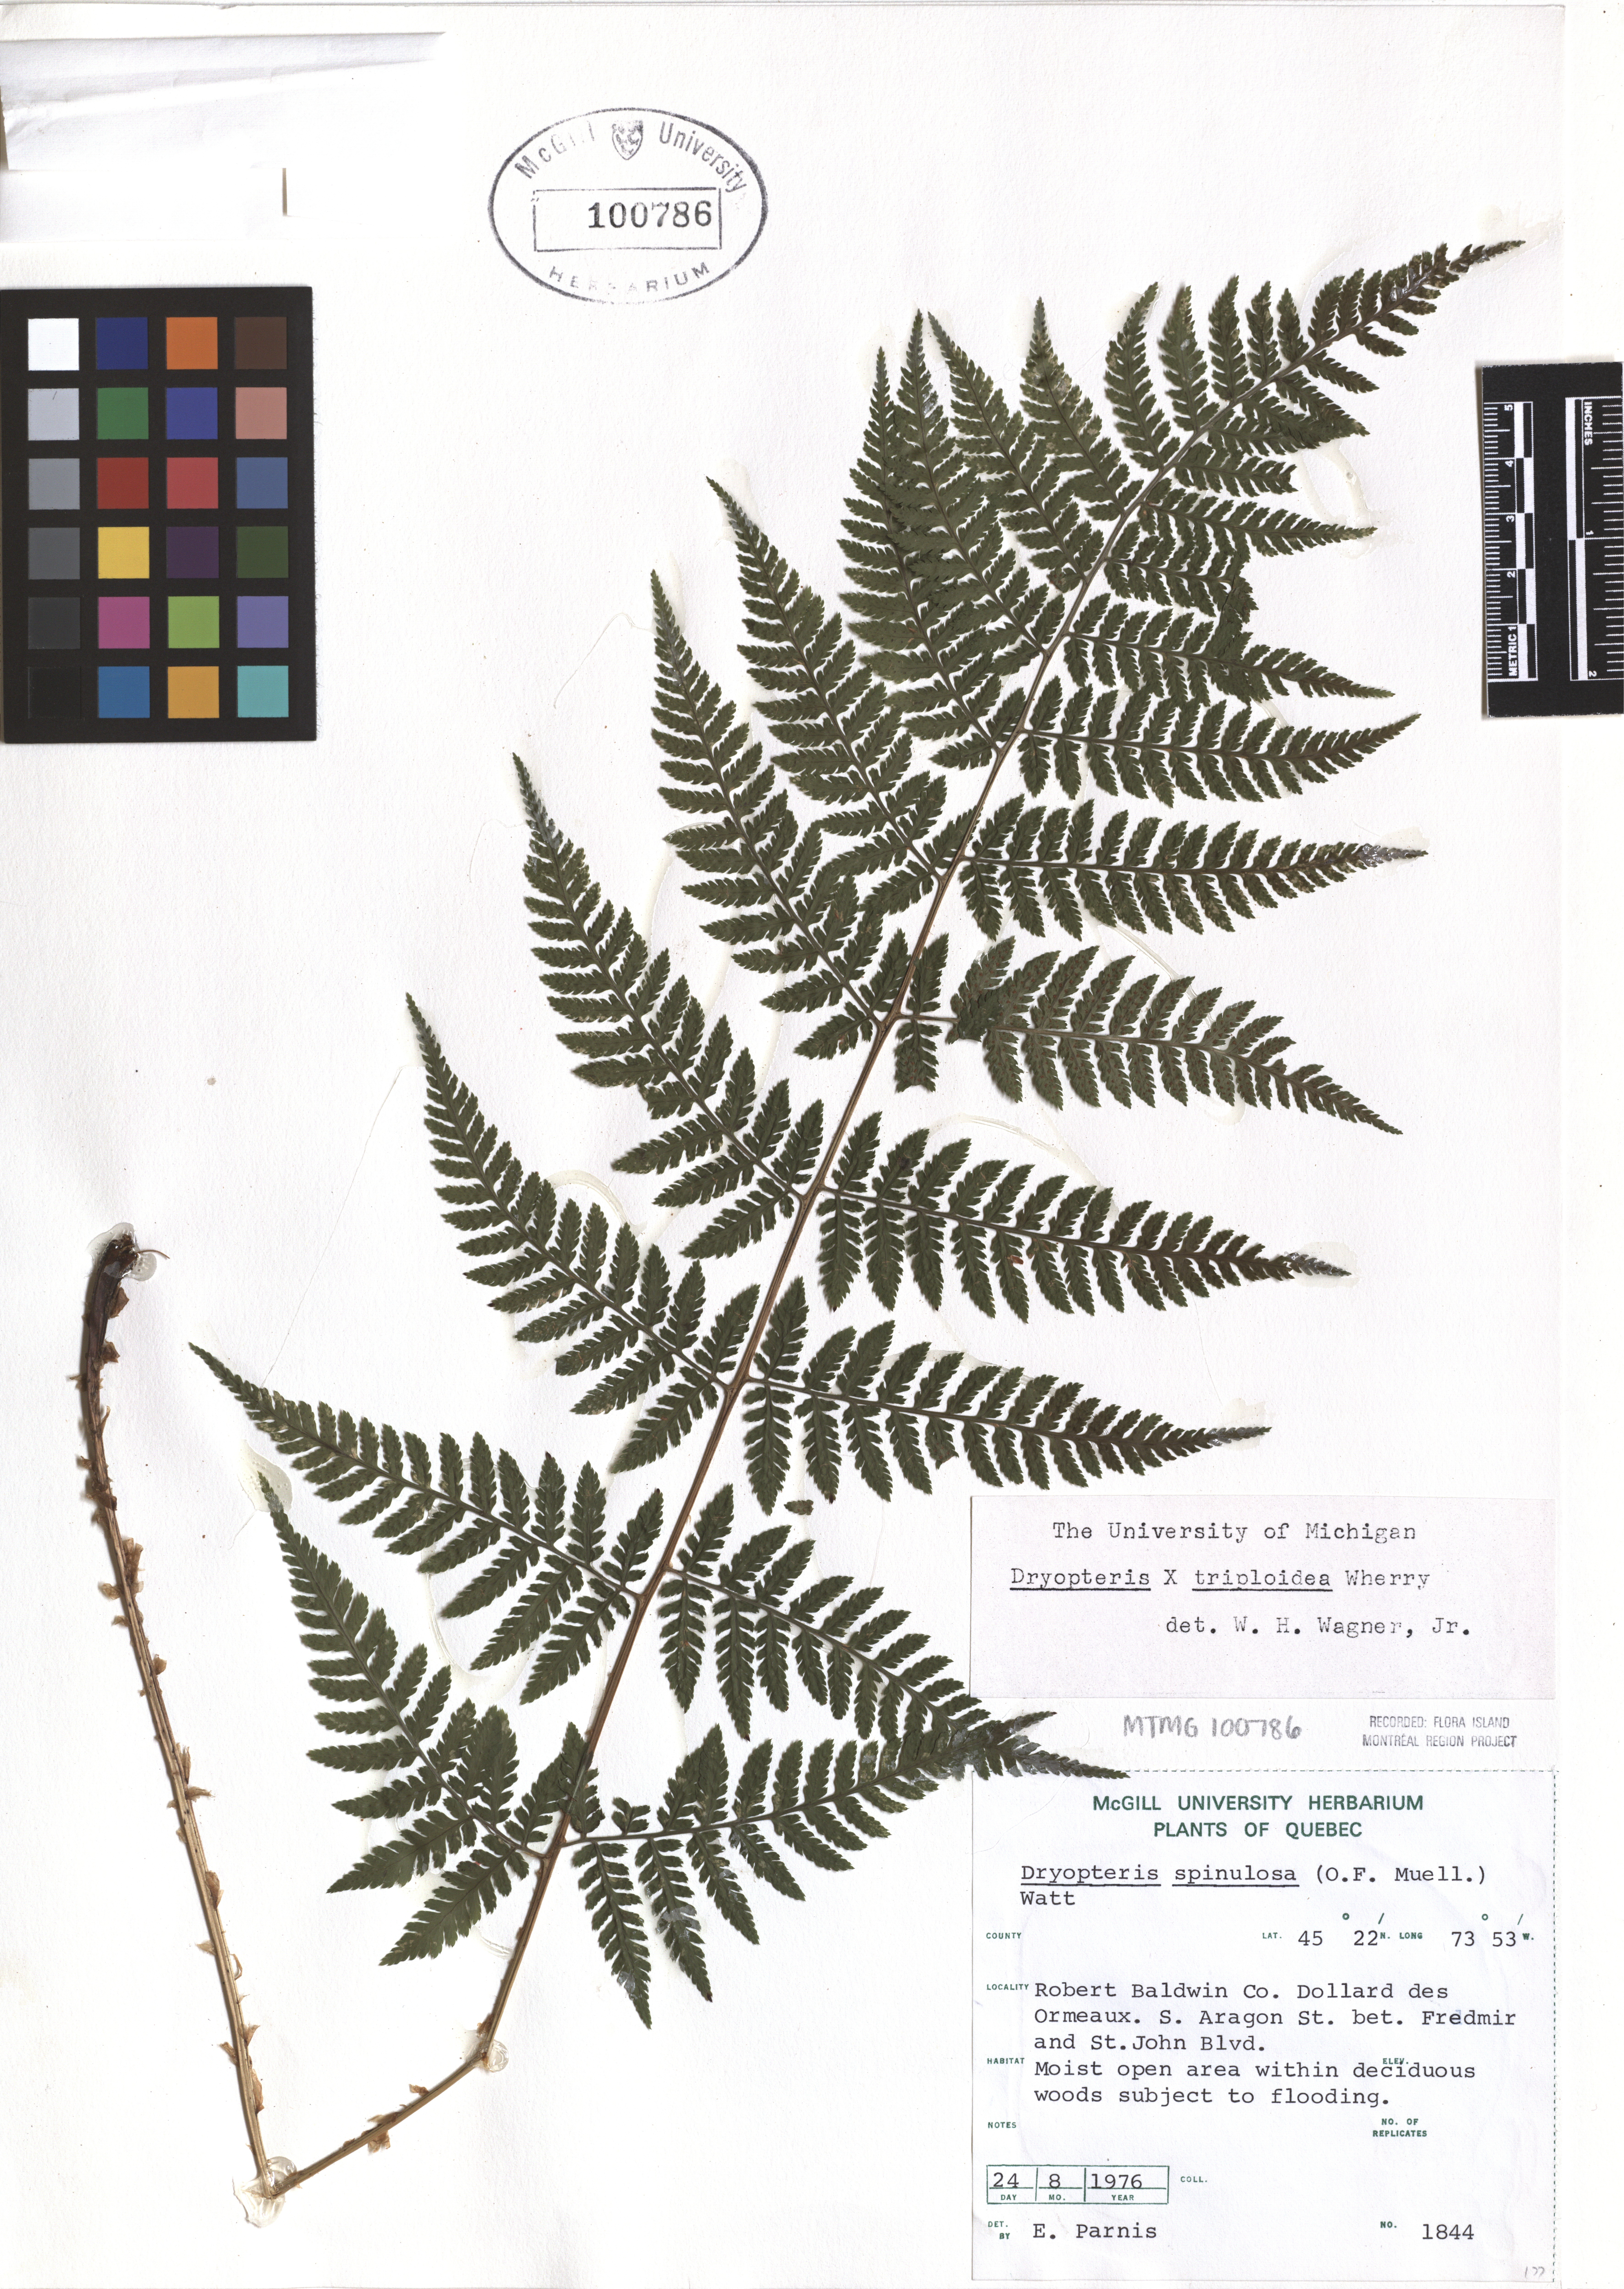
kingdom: Plantae
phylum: Tracheophyta
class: Polypodiopsida
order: Polypodiales
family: Dryopteridaceae
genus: Dryopteris
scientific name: Dryopteris triploidea
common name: Fruitful wood fern
